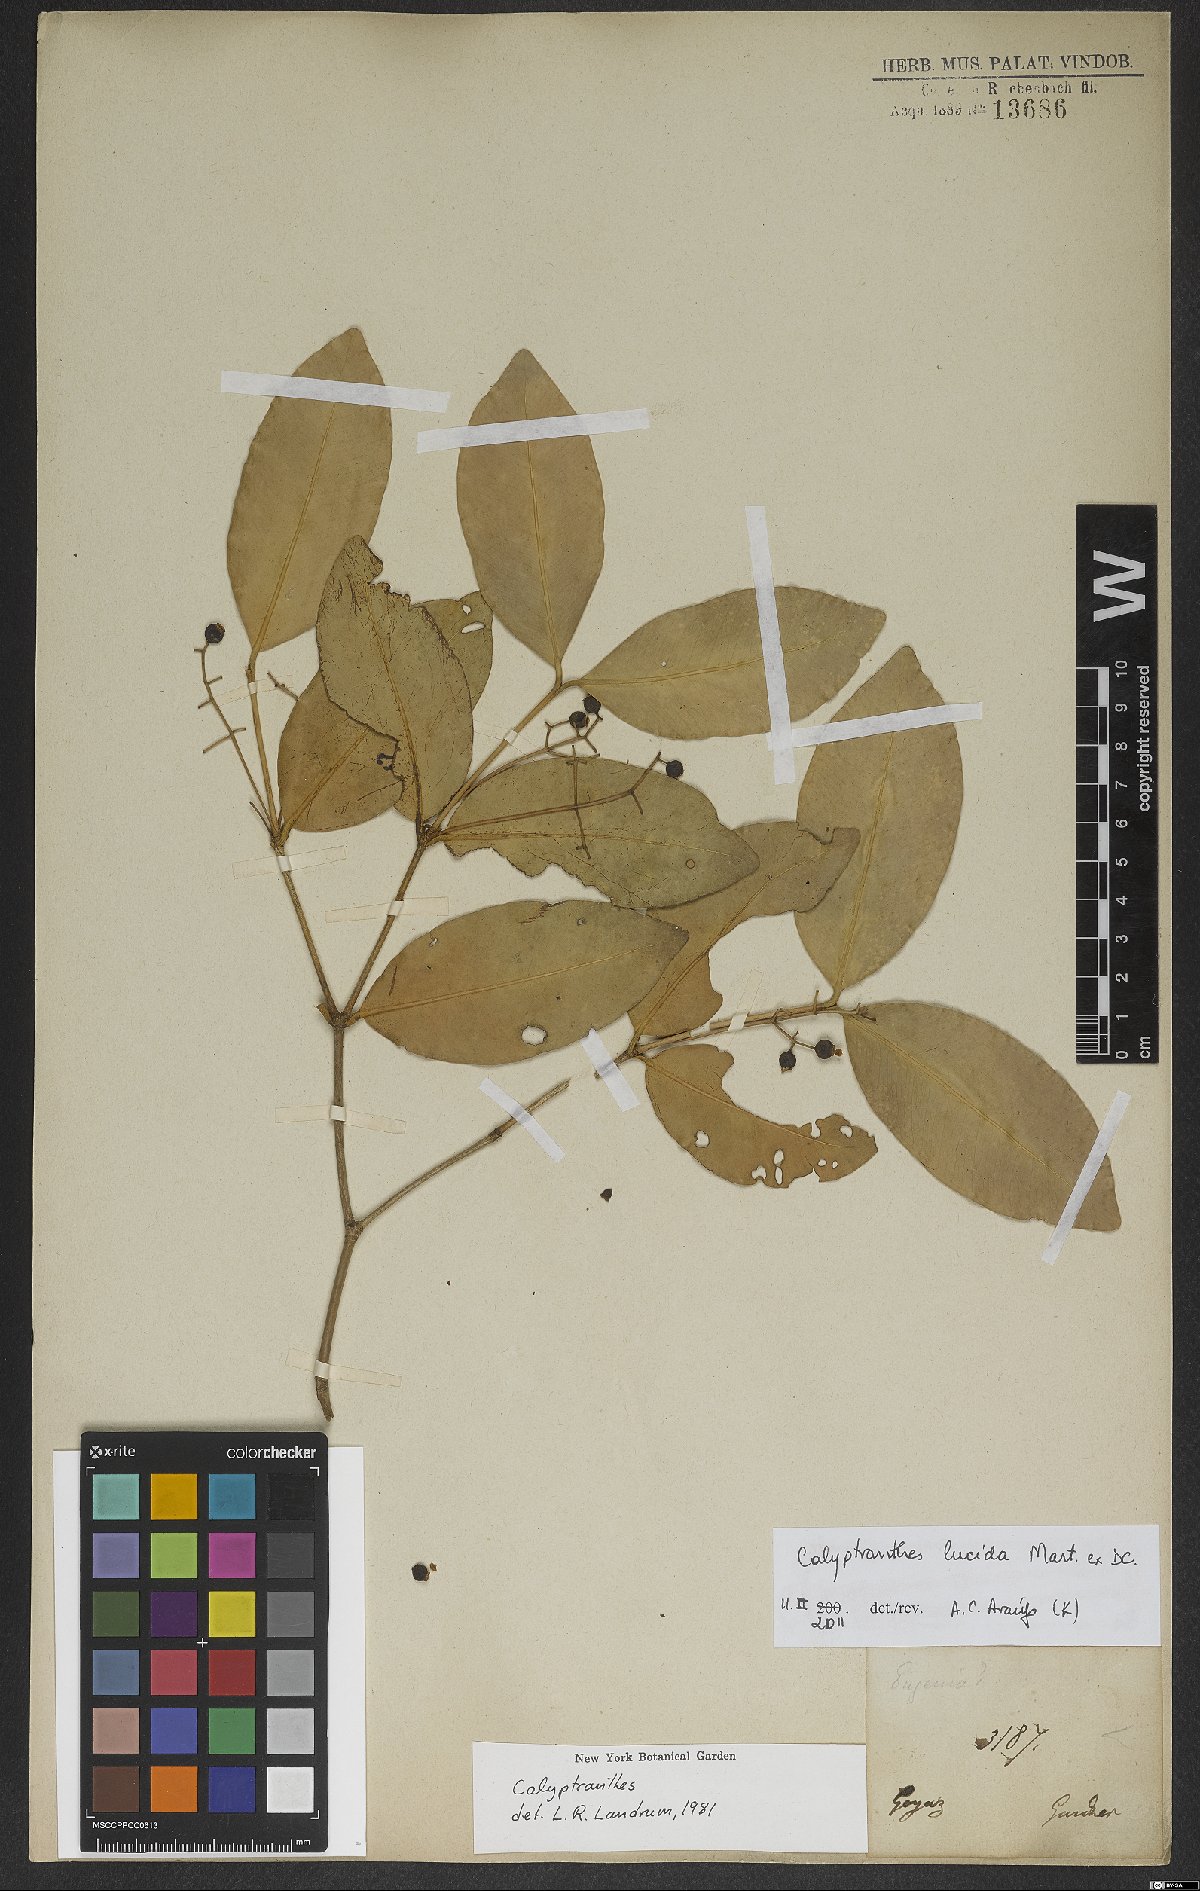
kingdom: Plantae
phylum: Tracheophyta
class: Magnoliopsida
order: Myrtales
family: Myrtaceae
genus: Myrcia
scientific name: Myrcia neolucida
